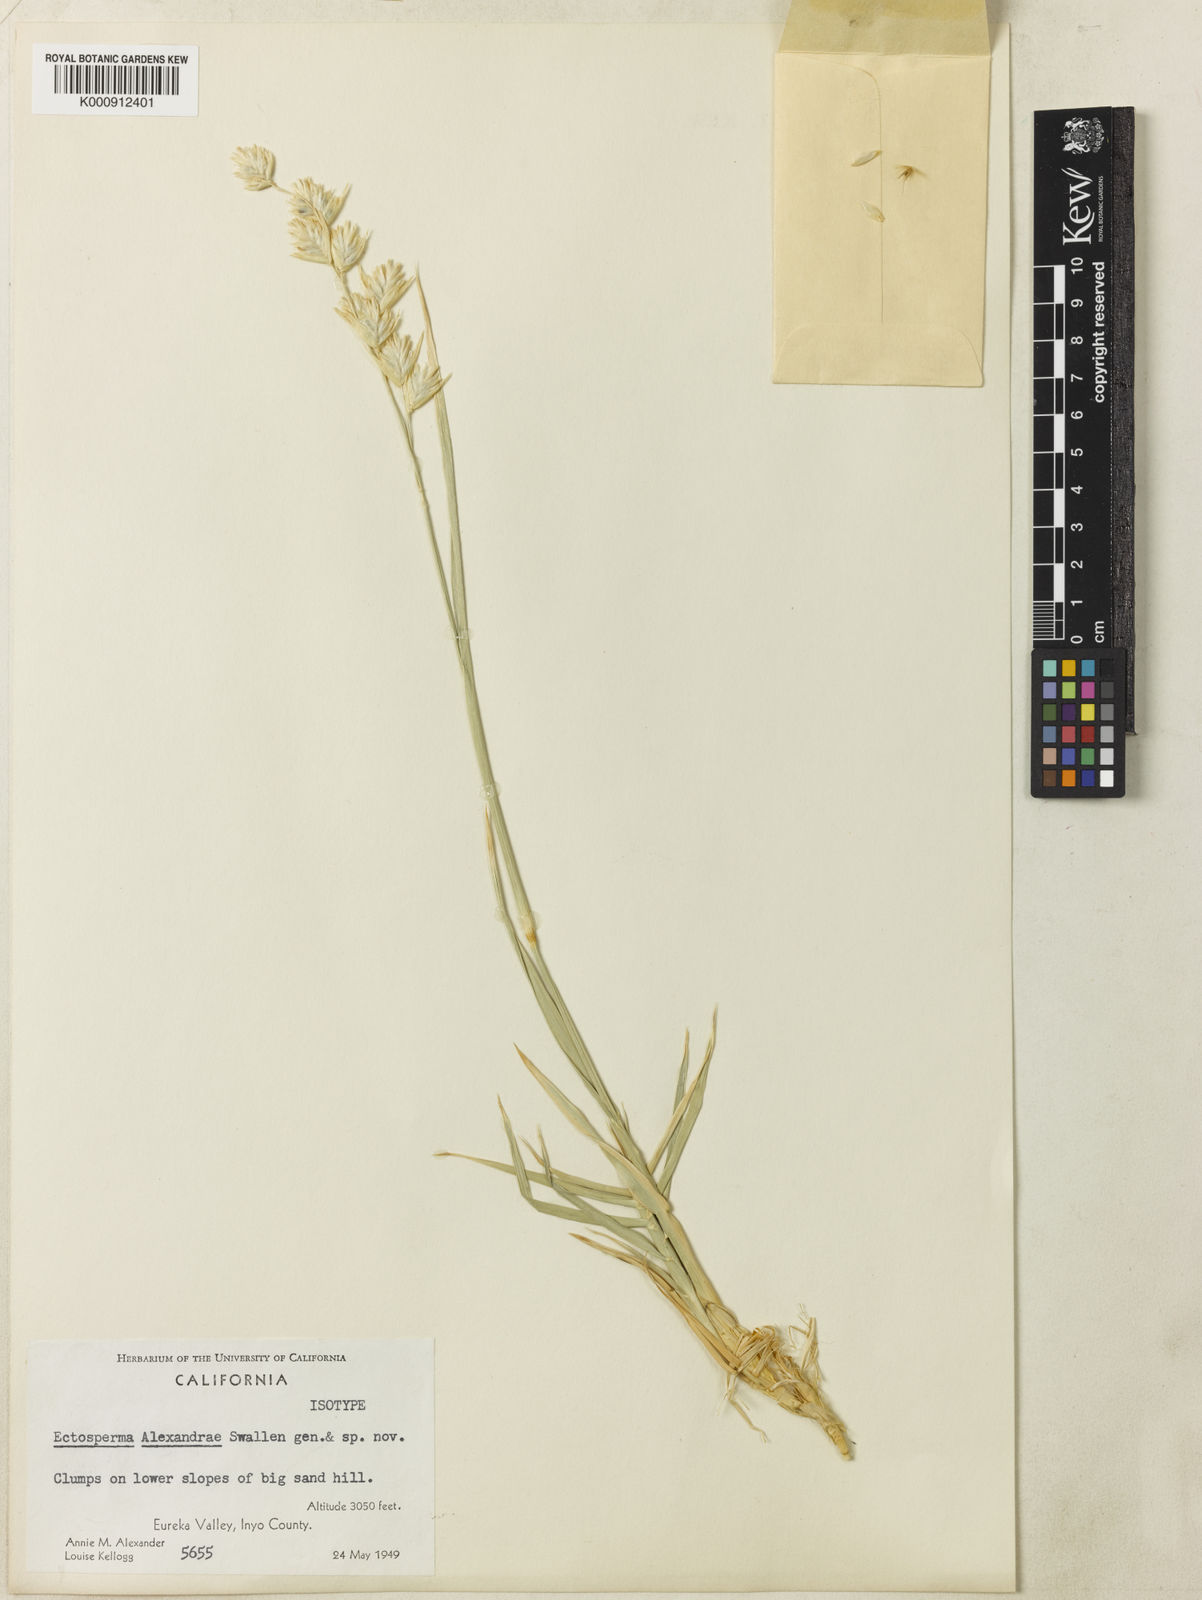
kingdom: Plantae
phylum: Tracheophyta
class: Liliopsida
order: Poales
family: Poaceae
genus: Swallenia
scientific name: Swallenia alexandrae
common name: Eureka dune grass
